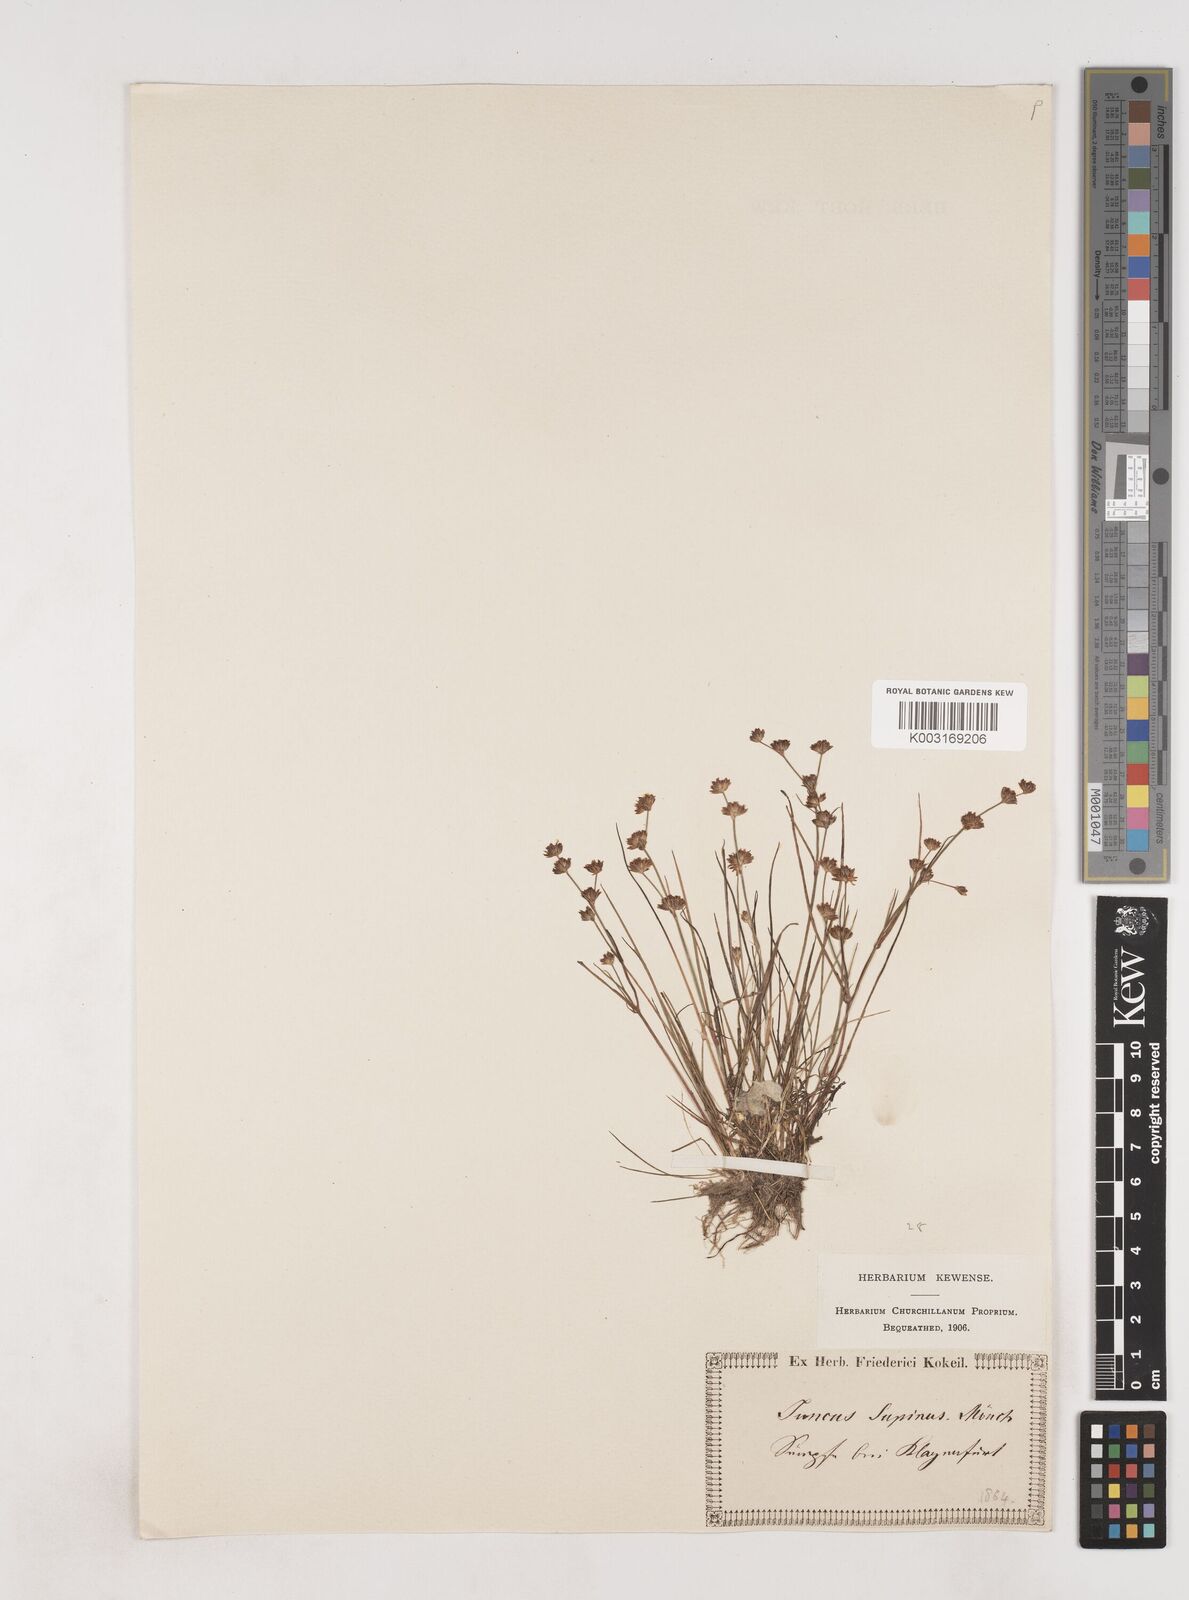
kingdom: Plantae
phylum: Tracheophyta
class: Liliopsida
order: Poales
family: Juncaceae
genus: Juncus
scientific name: Juncus bulbosus
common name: Bulbous rush
